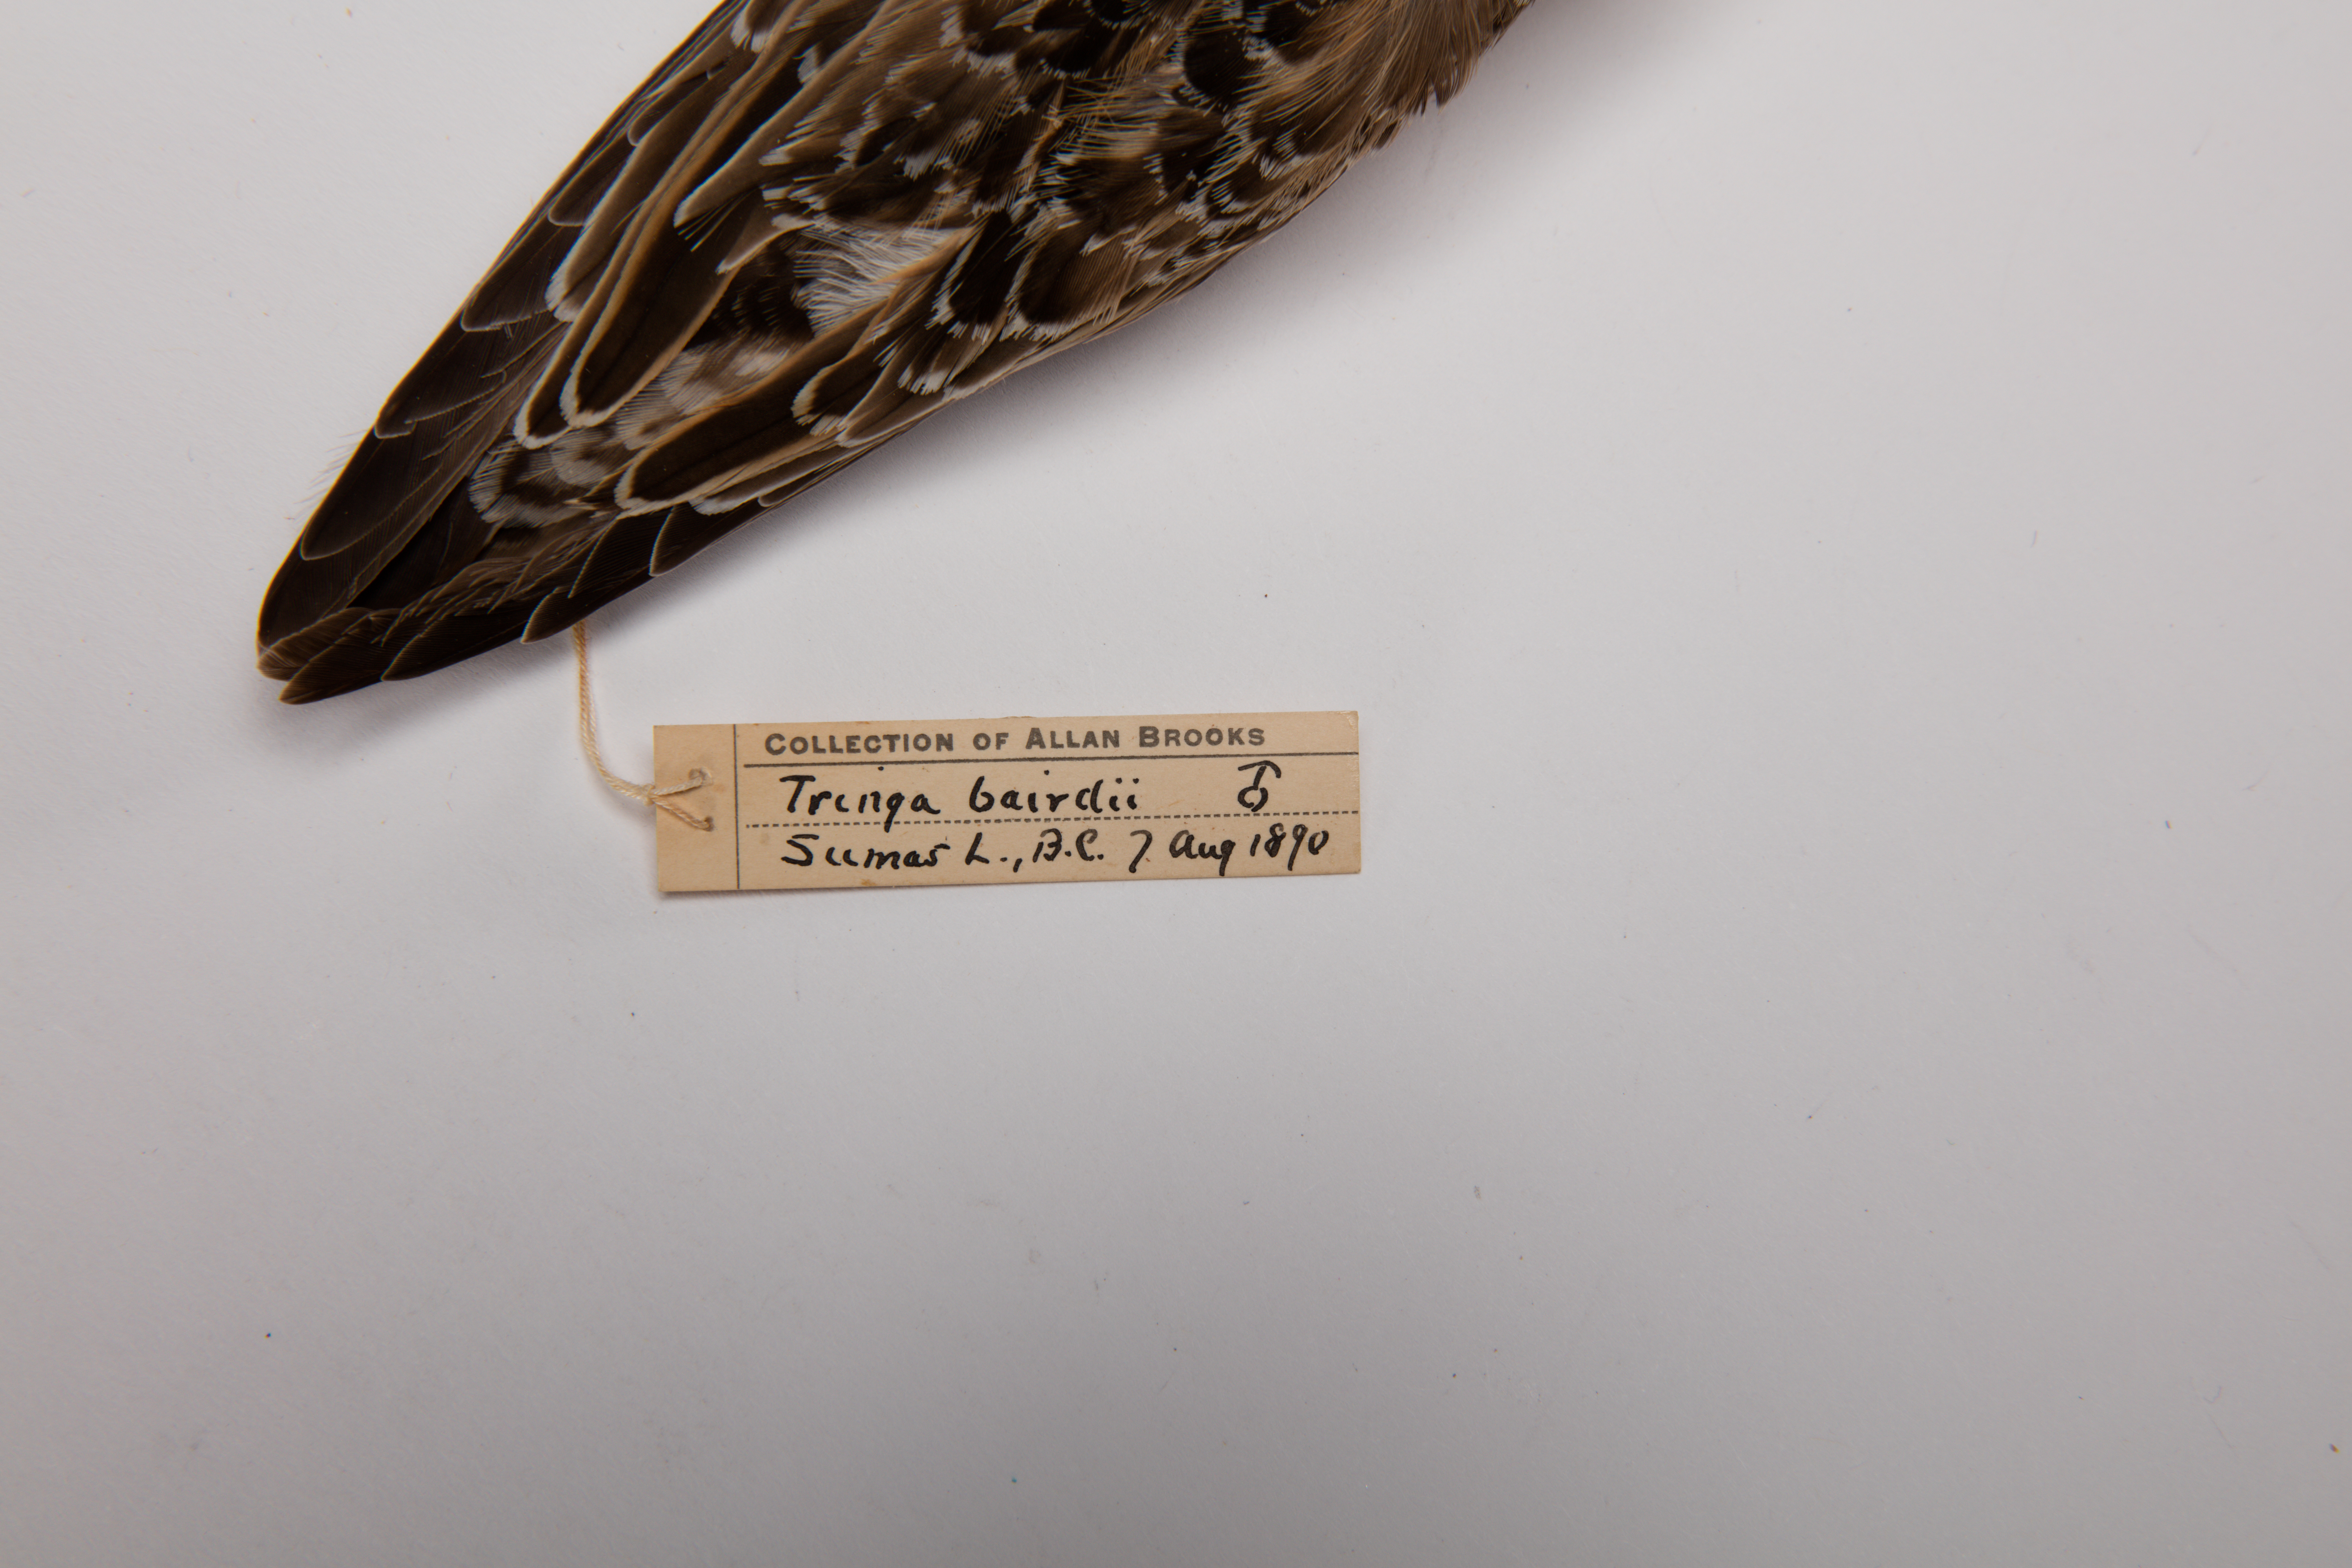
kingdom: Animalia
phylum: Chordata
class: Aves
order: Charadriiformes
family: Scolopacidae
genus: Calidris
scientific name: Calidris bairdii
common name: Baird's sandpiper
